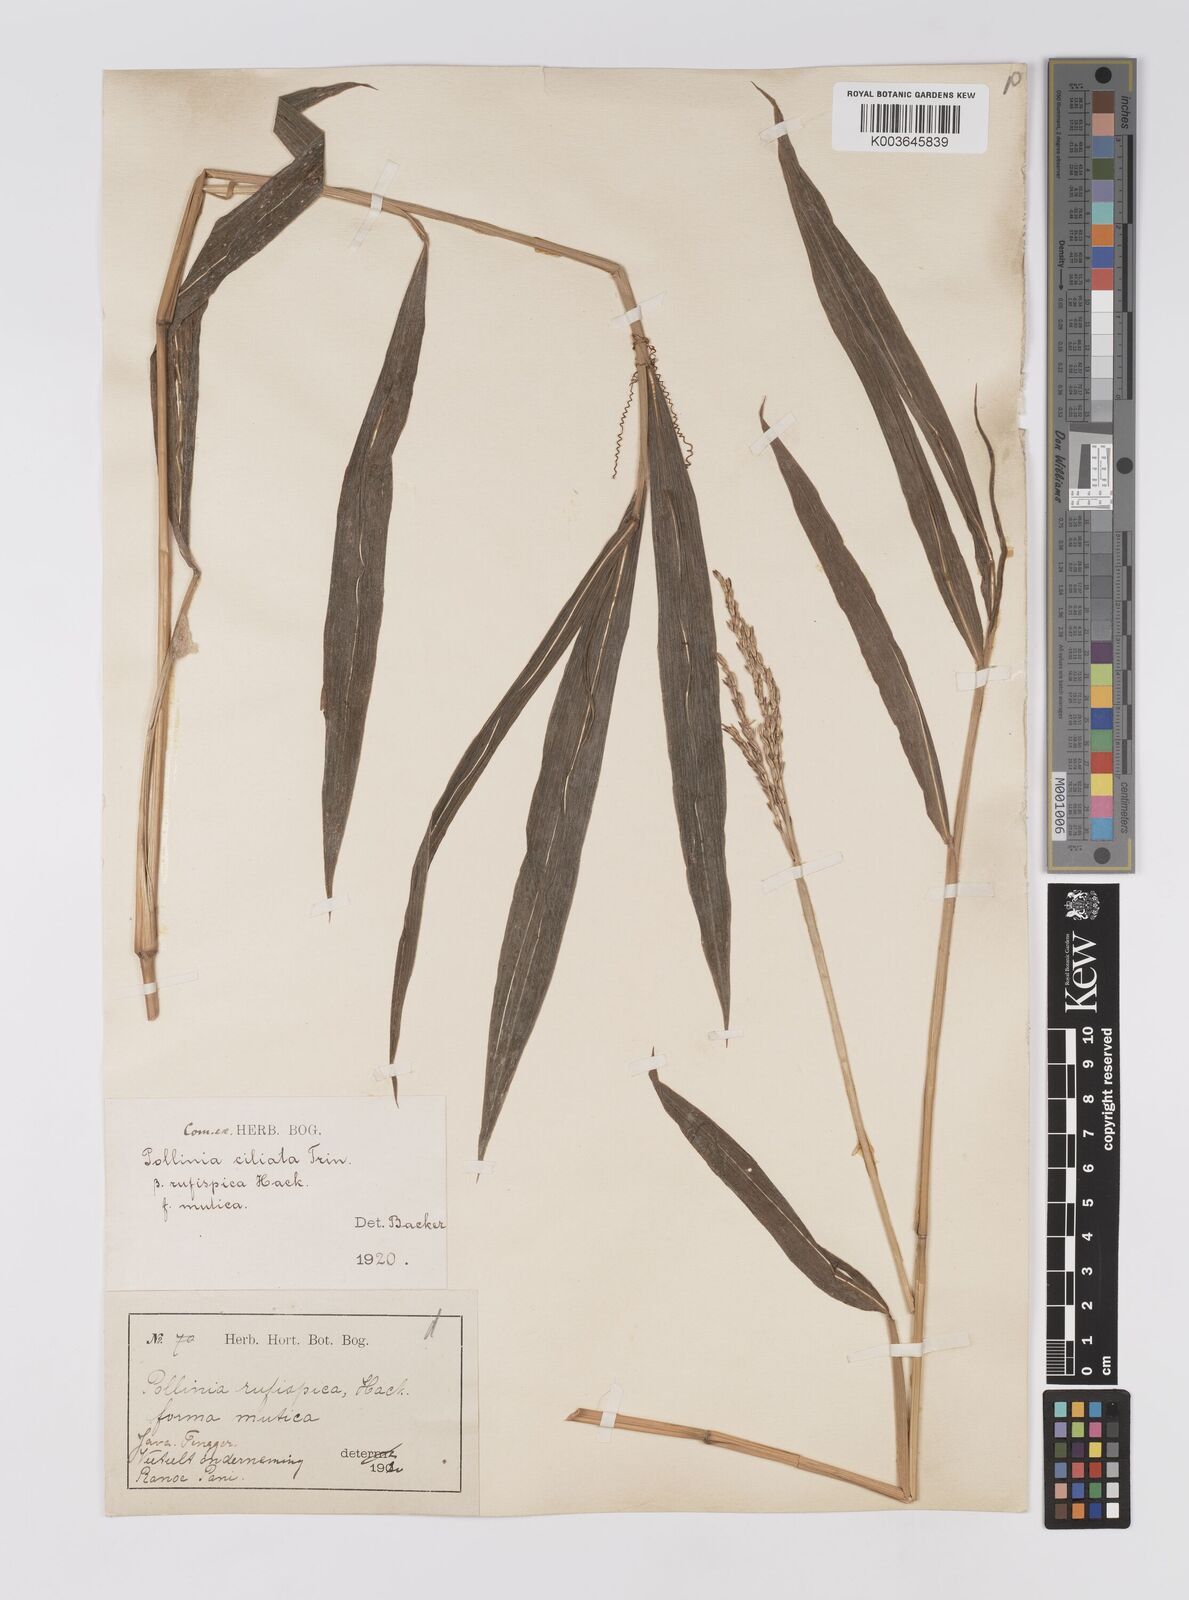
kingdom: Plantae
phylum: Tracheophyta
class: Liliopsida
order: Poales
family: Poaceae
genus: Microstegium
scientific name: Microstegium rufispicum
